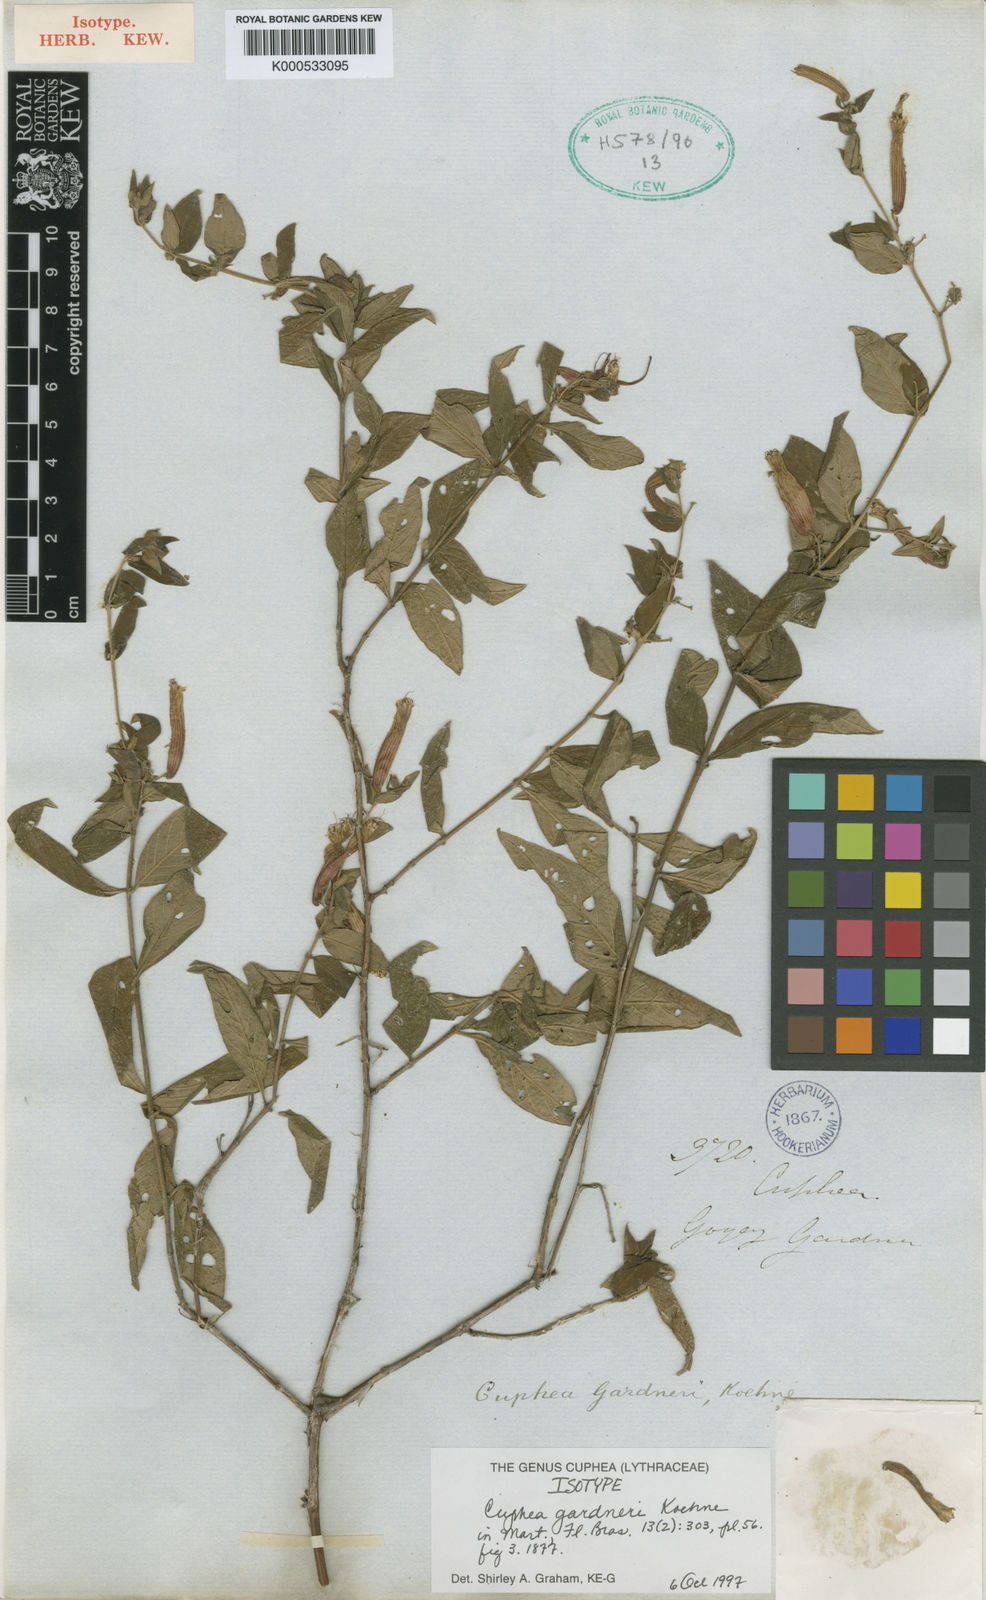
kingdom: Plantae
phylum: Tracheophyta
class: Magnoliopsida
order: Myrtales
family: Lythraceae
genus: Cuphea
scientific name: Cuphea gardneri
